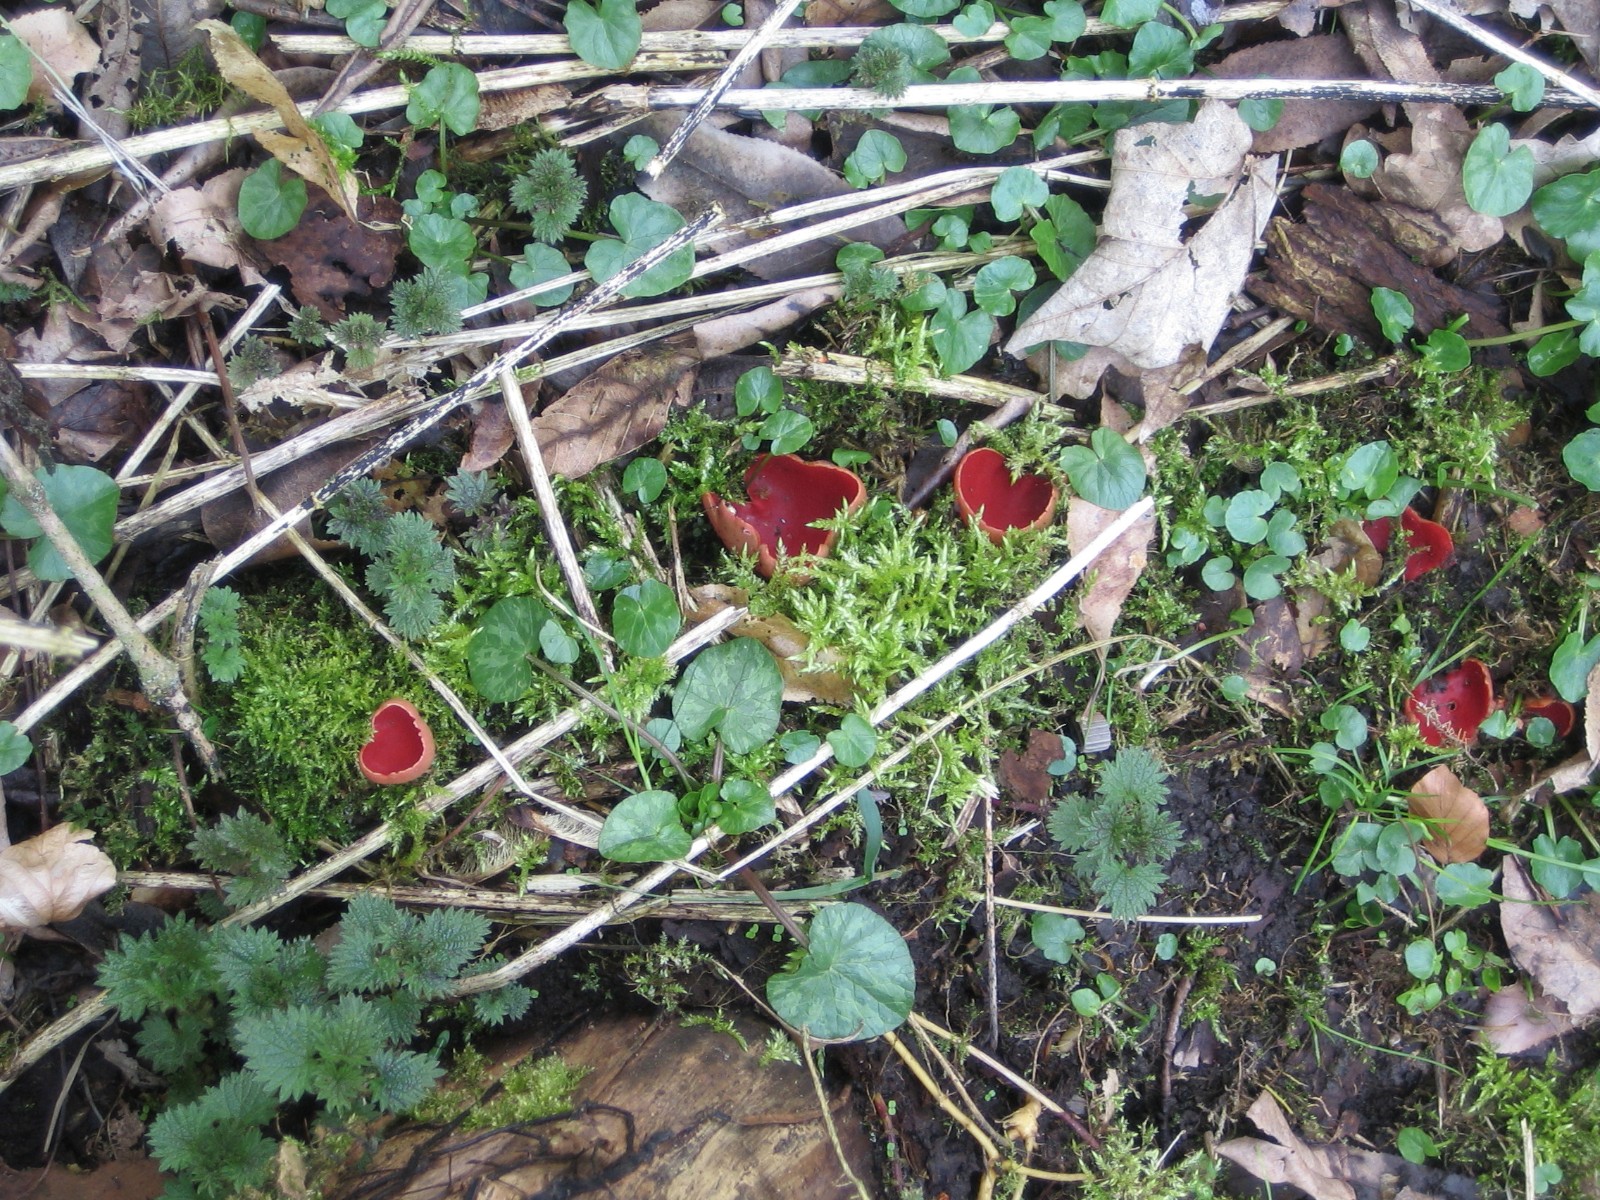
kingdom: Fungi
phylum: Ascomycota
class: Pezizomycetes
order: Pezizales
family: Sarcoscyphaceae
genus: Sarcoscypha
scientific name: Sarcoscypha austriaca
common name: krølhåret pragtbæger
